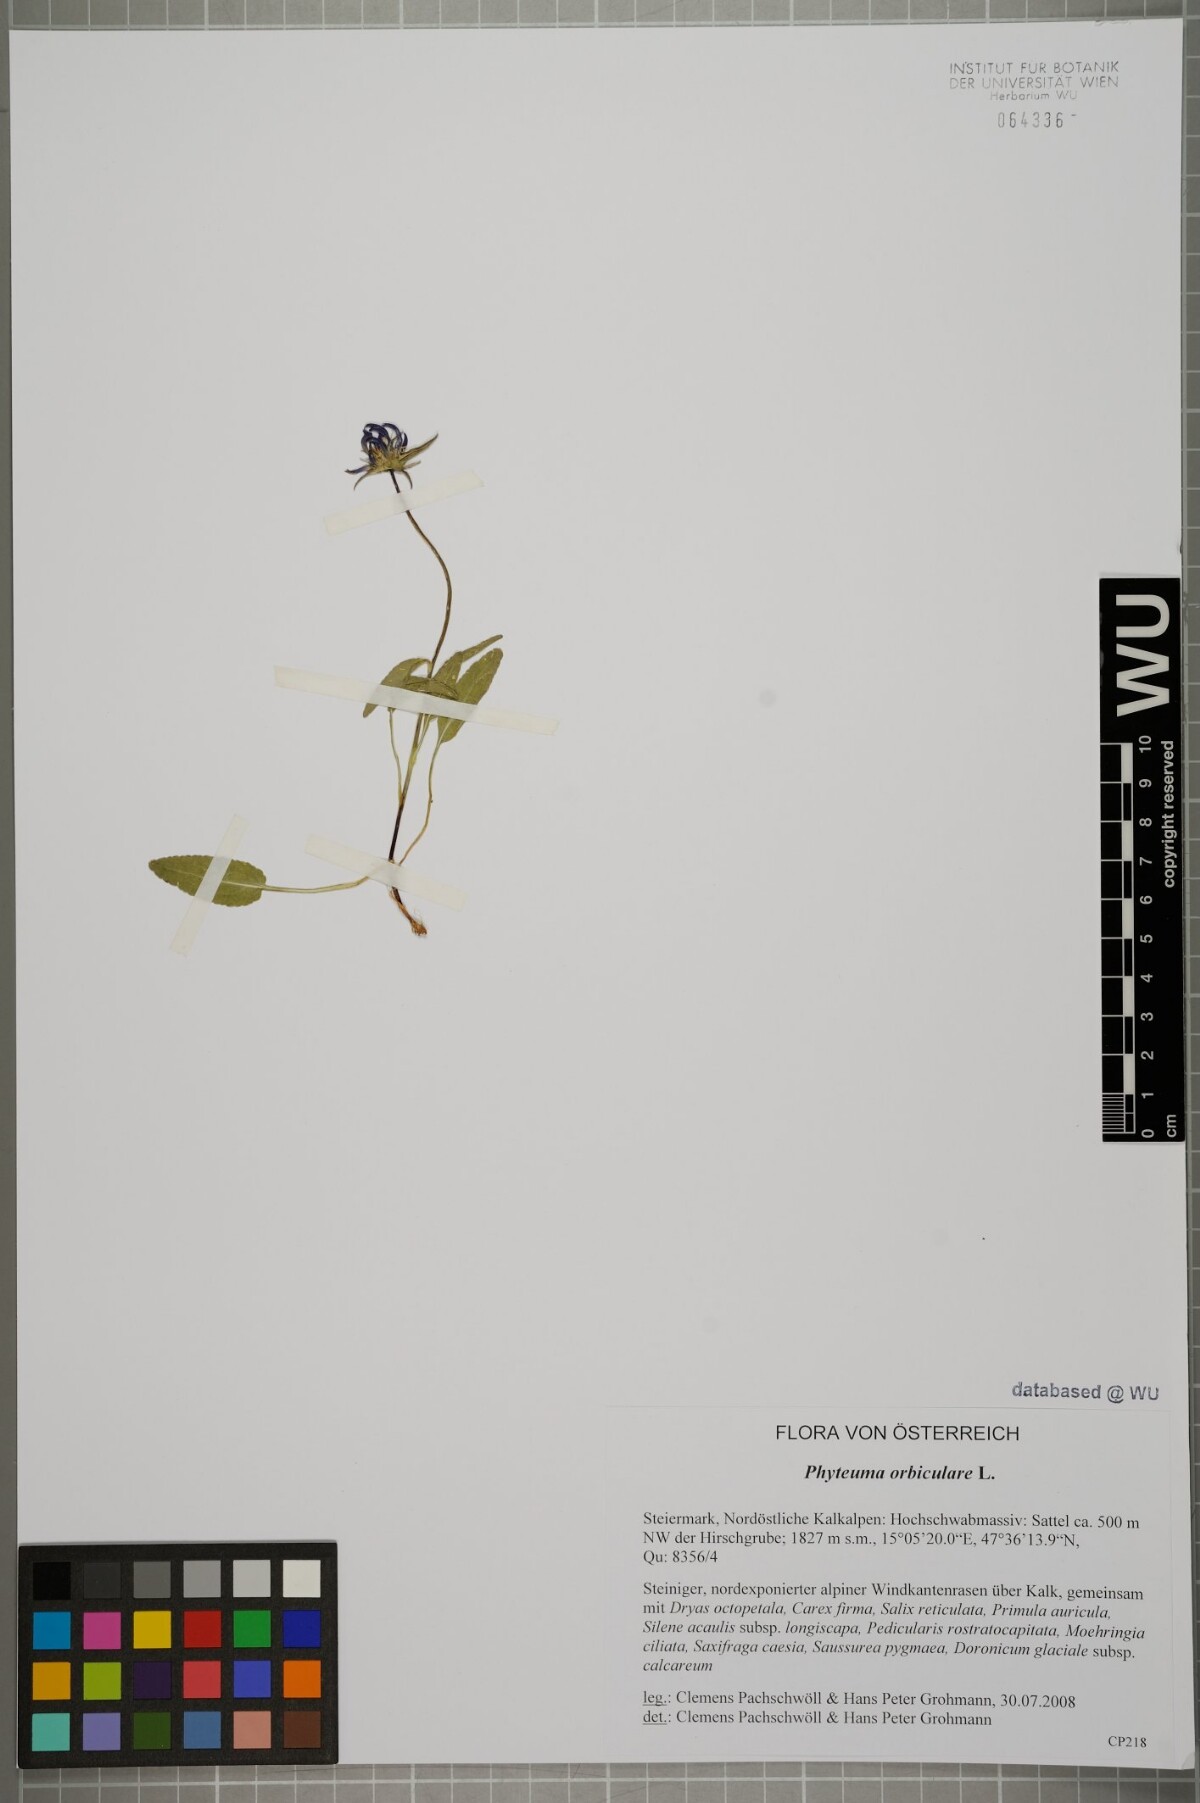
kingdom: Plantae
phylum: Tracheophyta
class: Magnoliopsida
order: Asterales
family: Campanulaceae
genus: Phyteuma
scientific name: Phyteuma orbiculare
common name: Round-headed rampion
